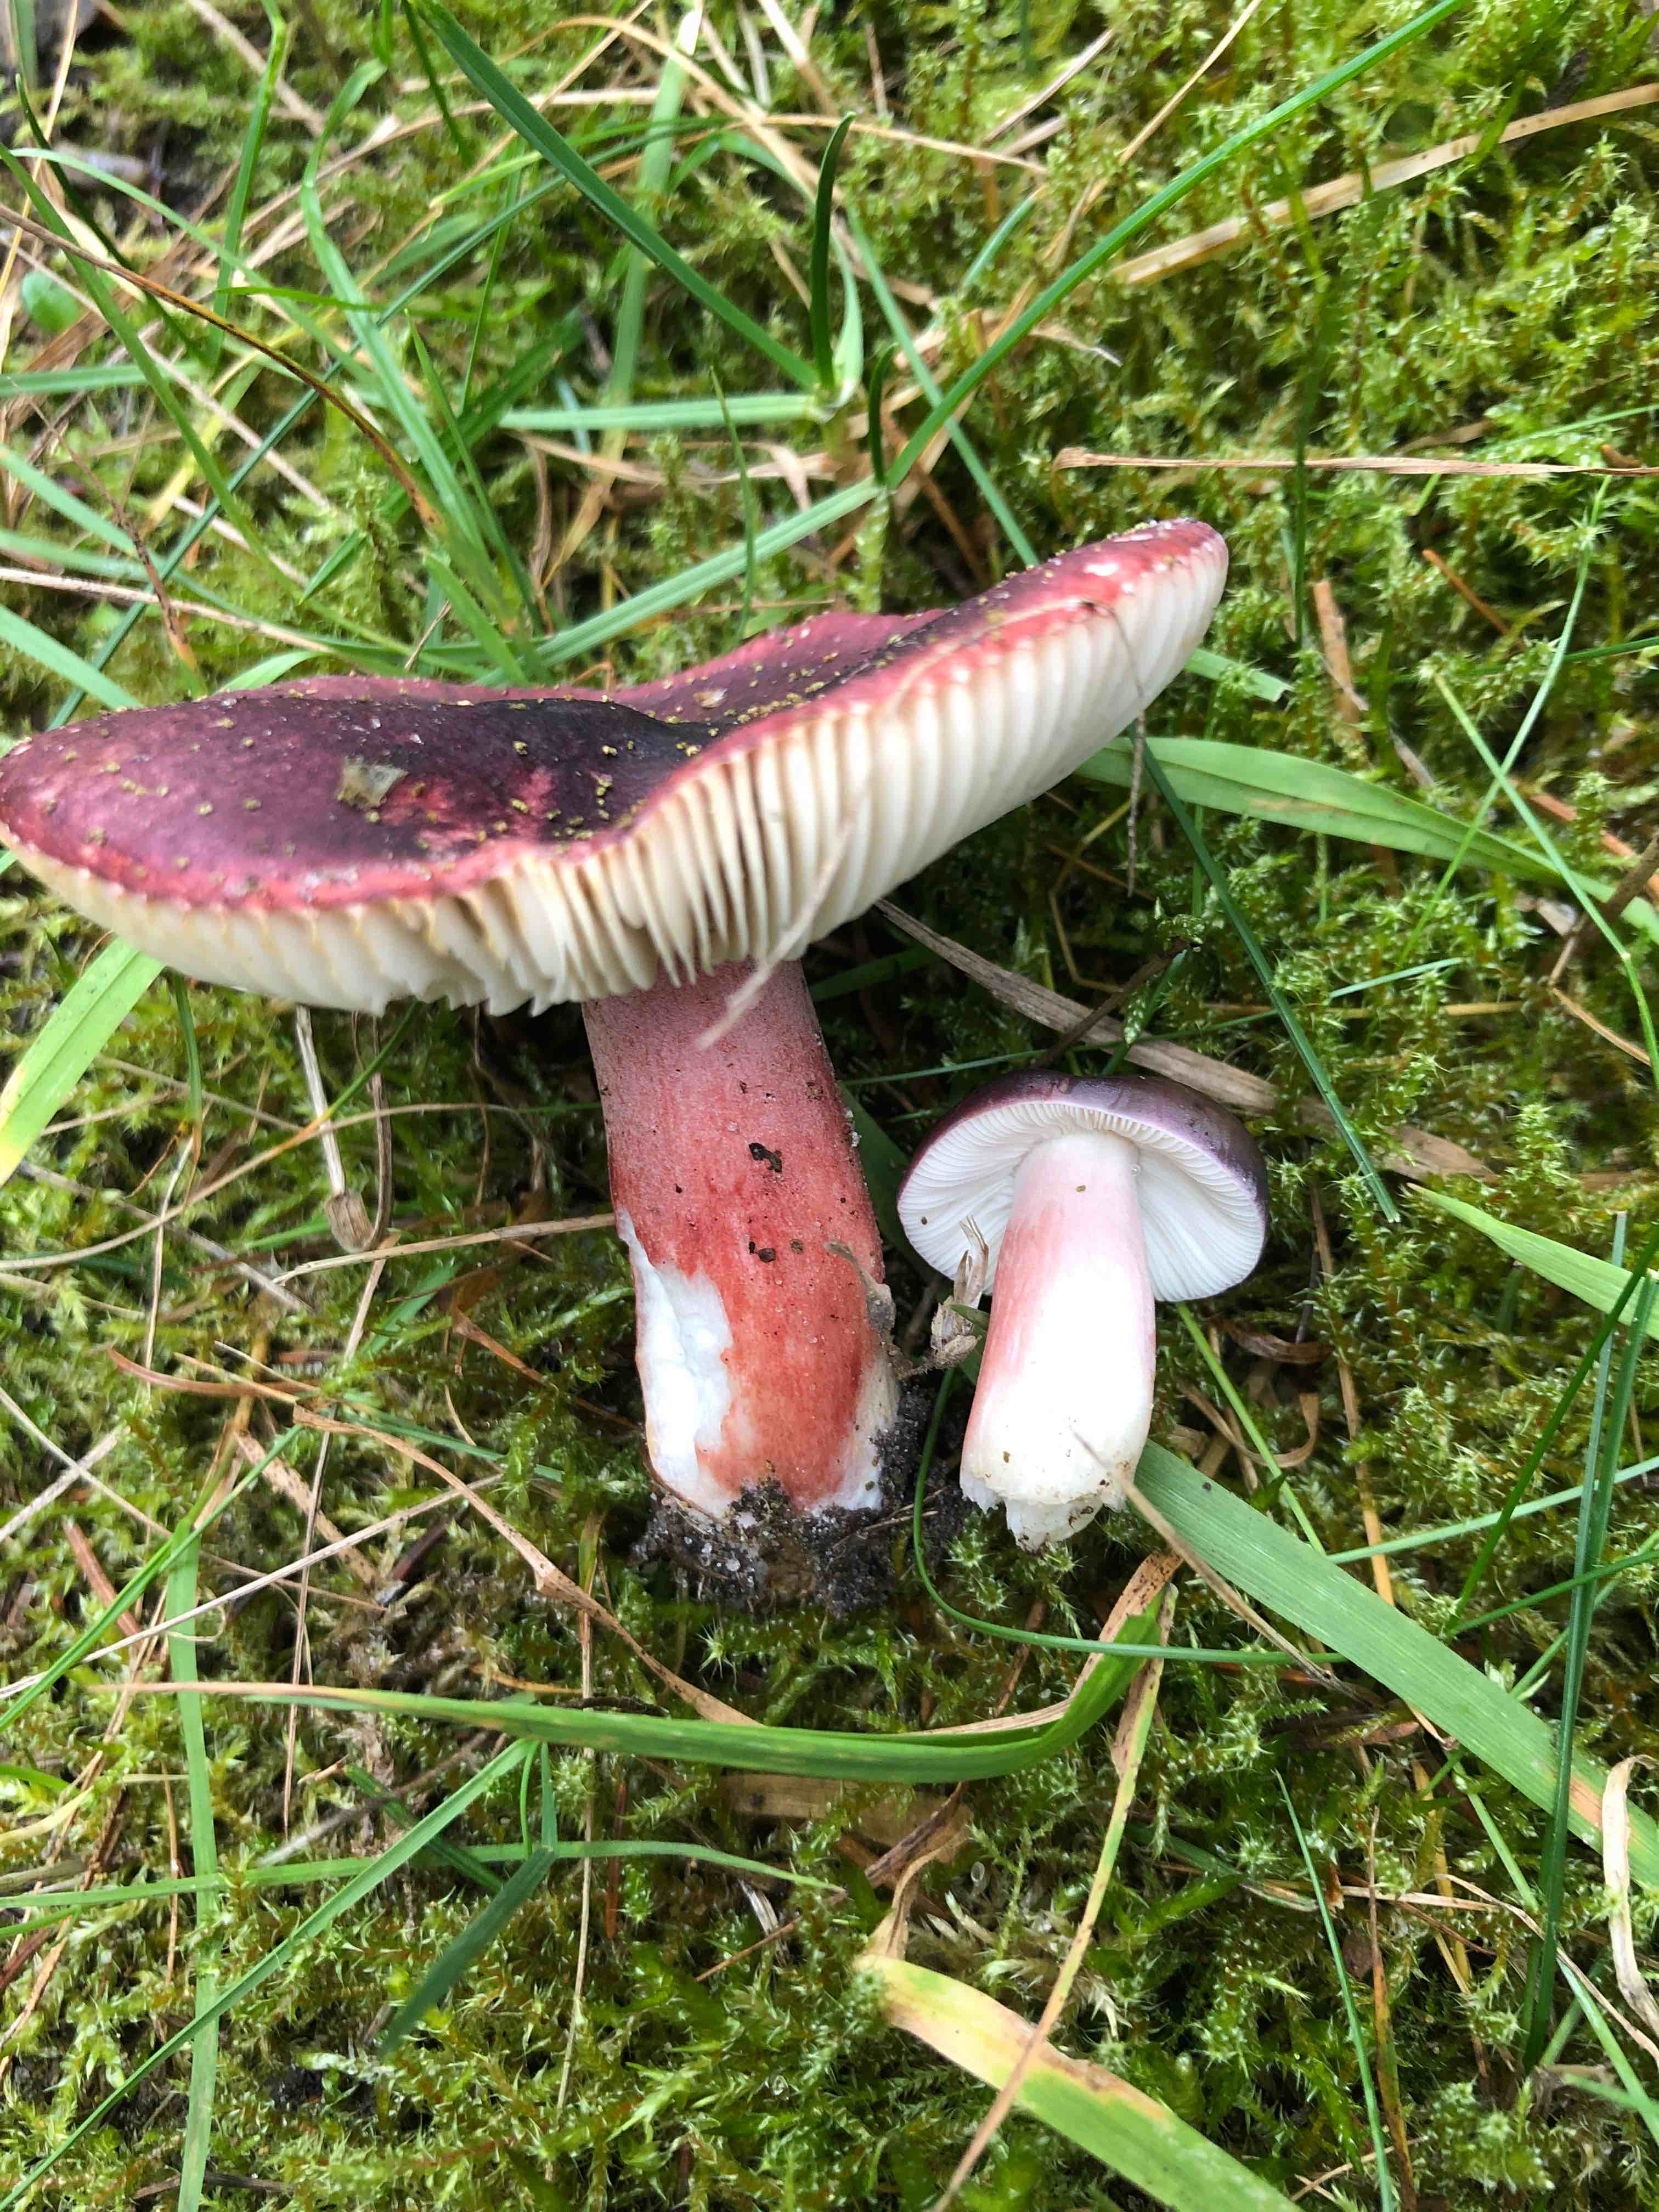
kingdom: Fungi
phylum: Basidiomycota
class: Agaricomycetes
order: Russulales
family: Russulaceae
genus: Russula
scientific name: Russula queletii
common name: Quélets skørhat
